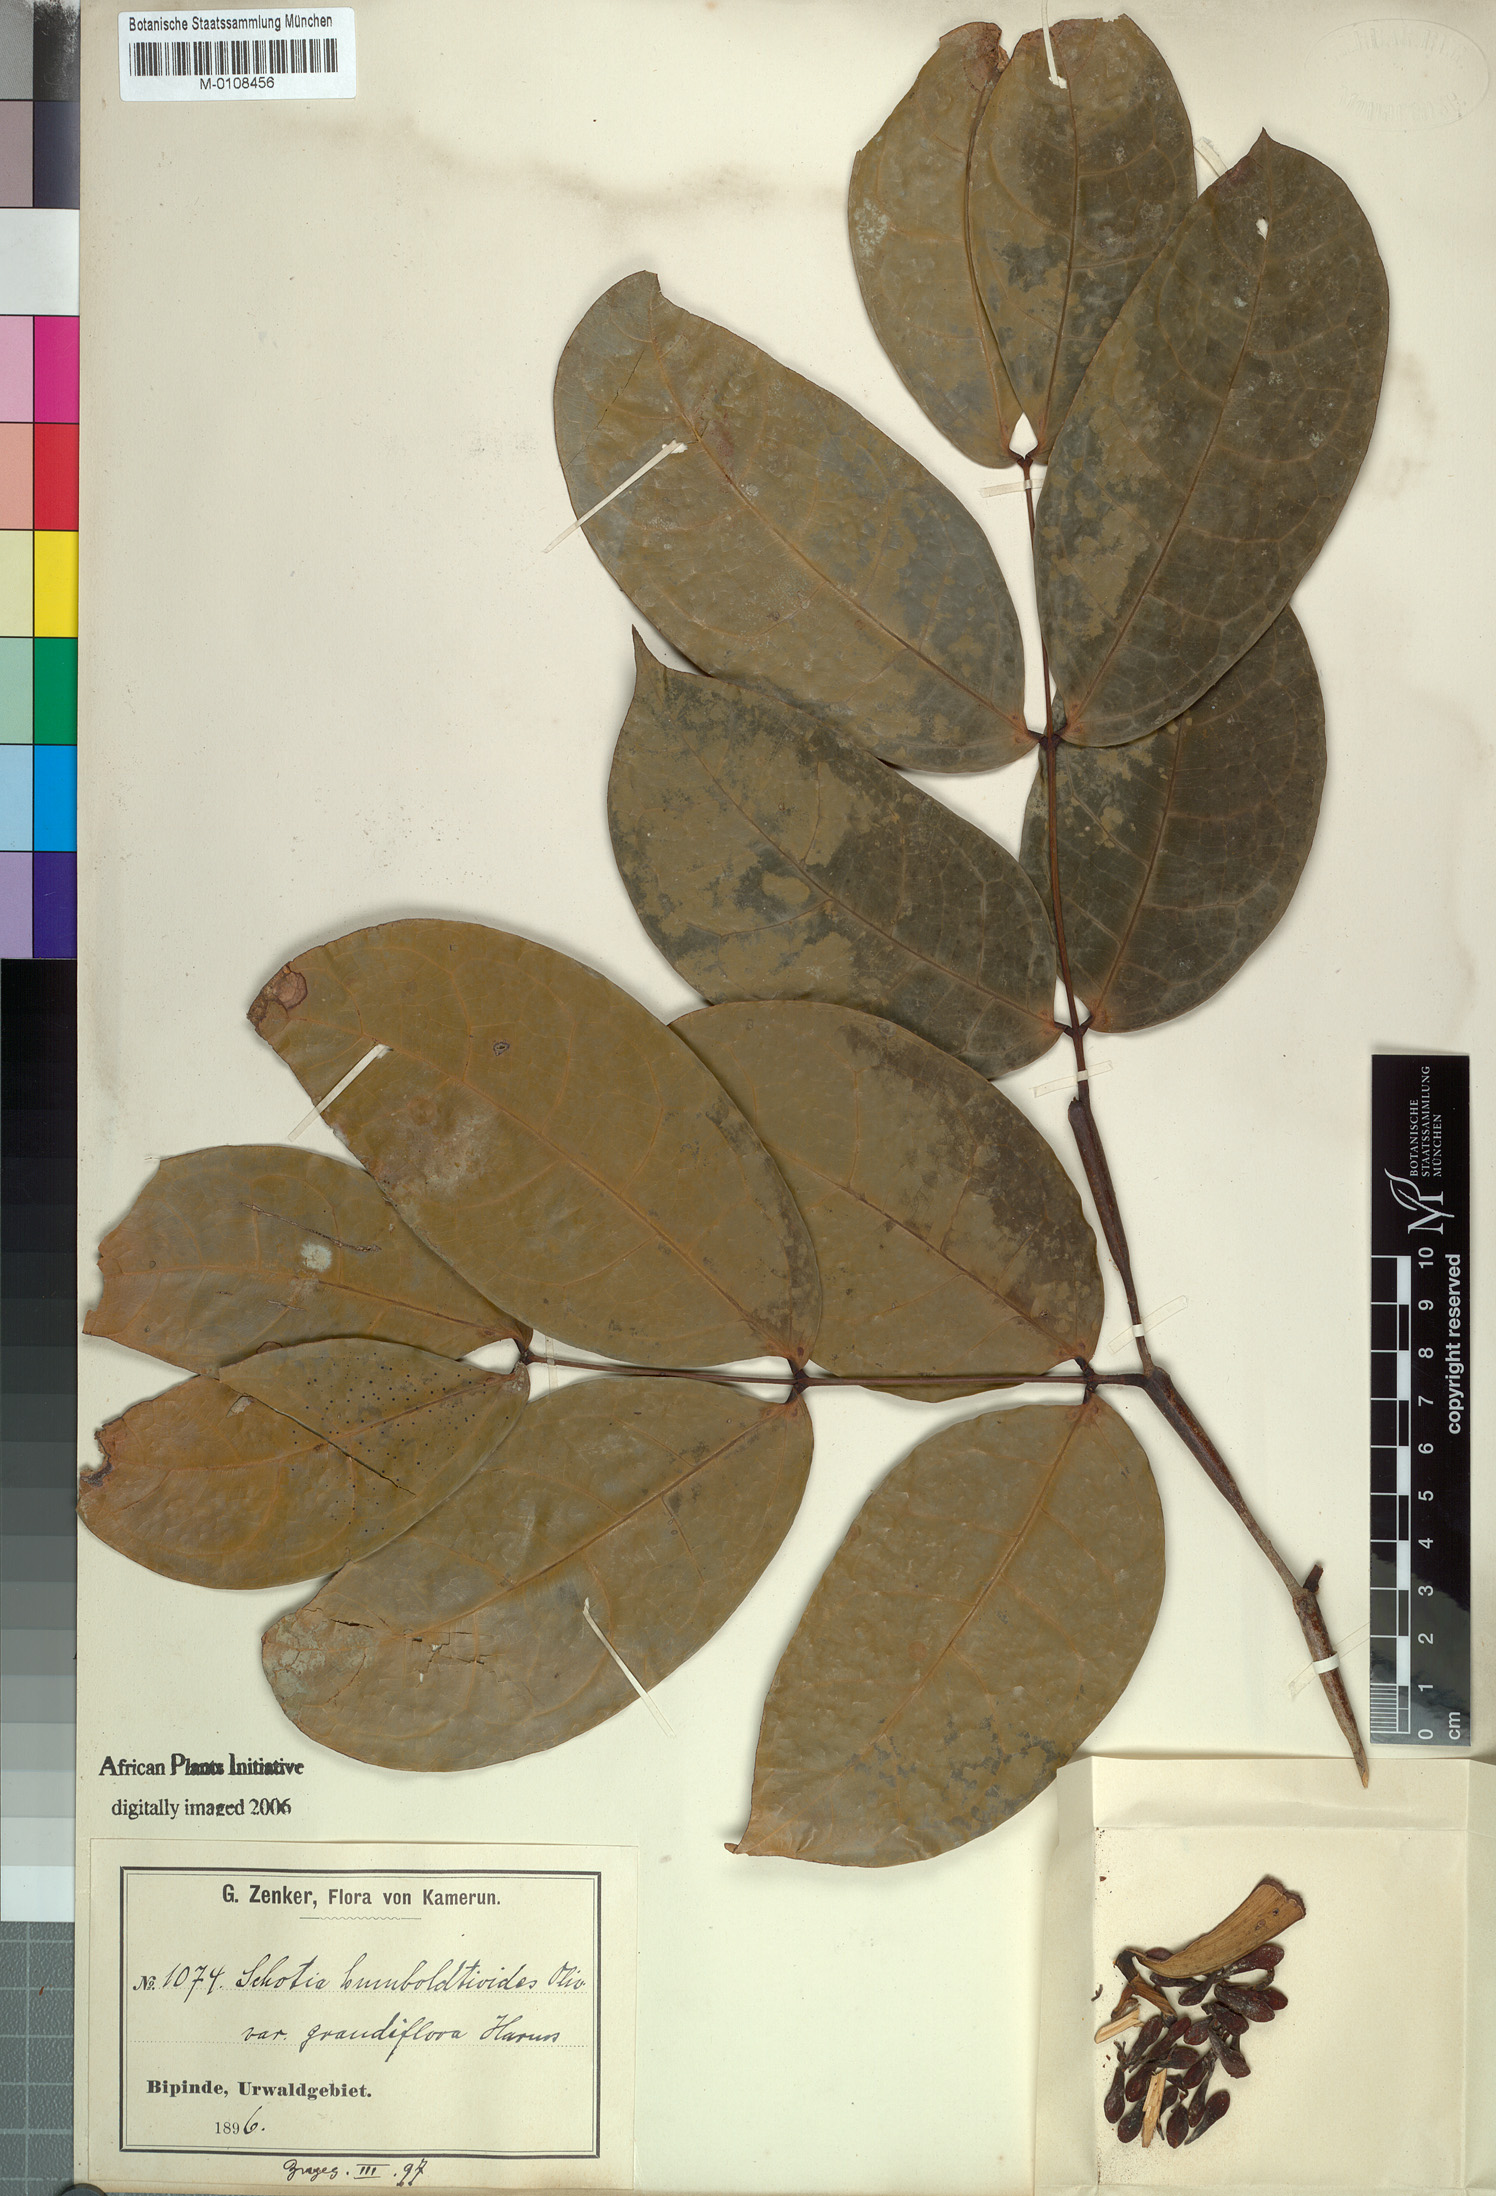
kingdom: Plantae
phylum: Tracheophyta
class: Magnoliopsida
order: Fabales
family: Fabaceae
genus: Leonardoxa
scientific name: Leonardoxa africana
